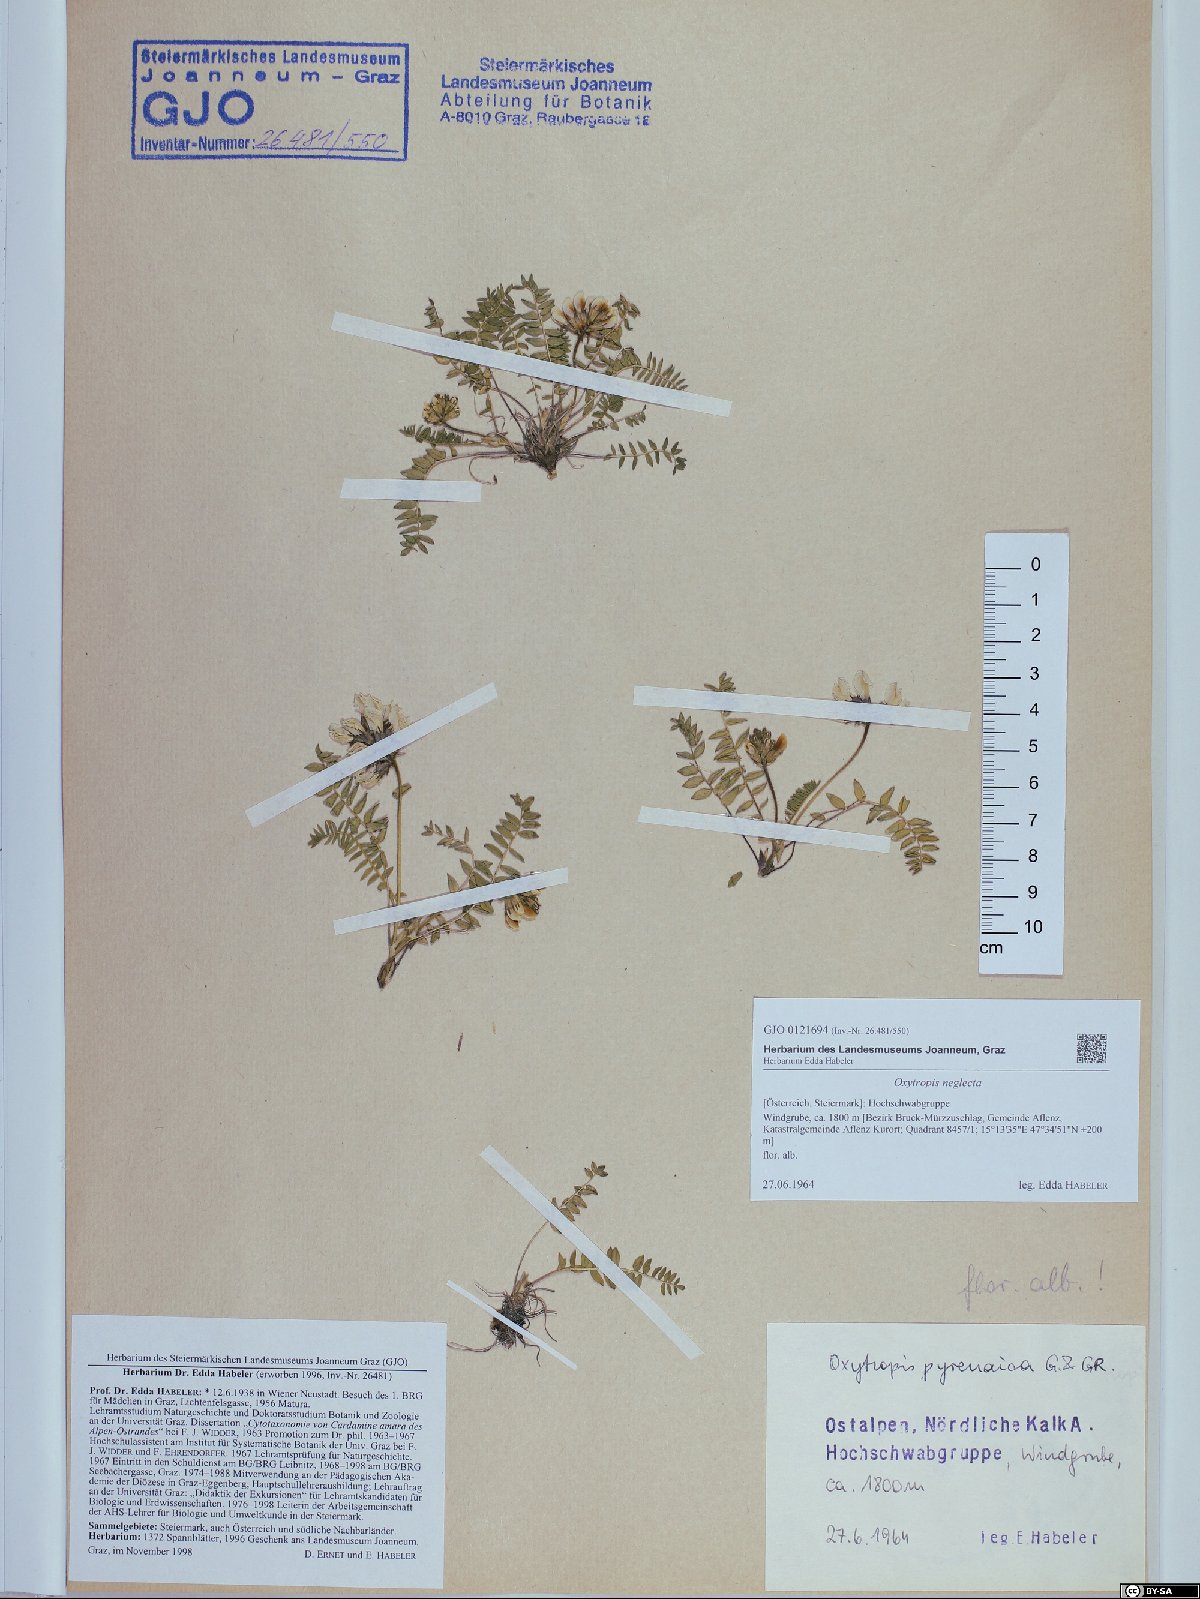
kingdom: Plantae
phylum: Tracheophyta
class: Magnoliopsida
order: Fabales
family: Fabaceae
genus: Oxytropis
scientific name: Oxytropis neglecta
